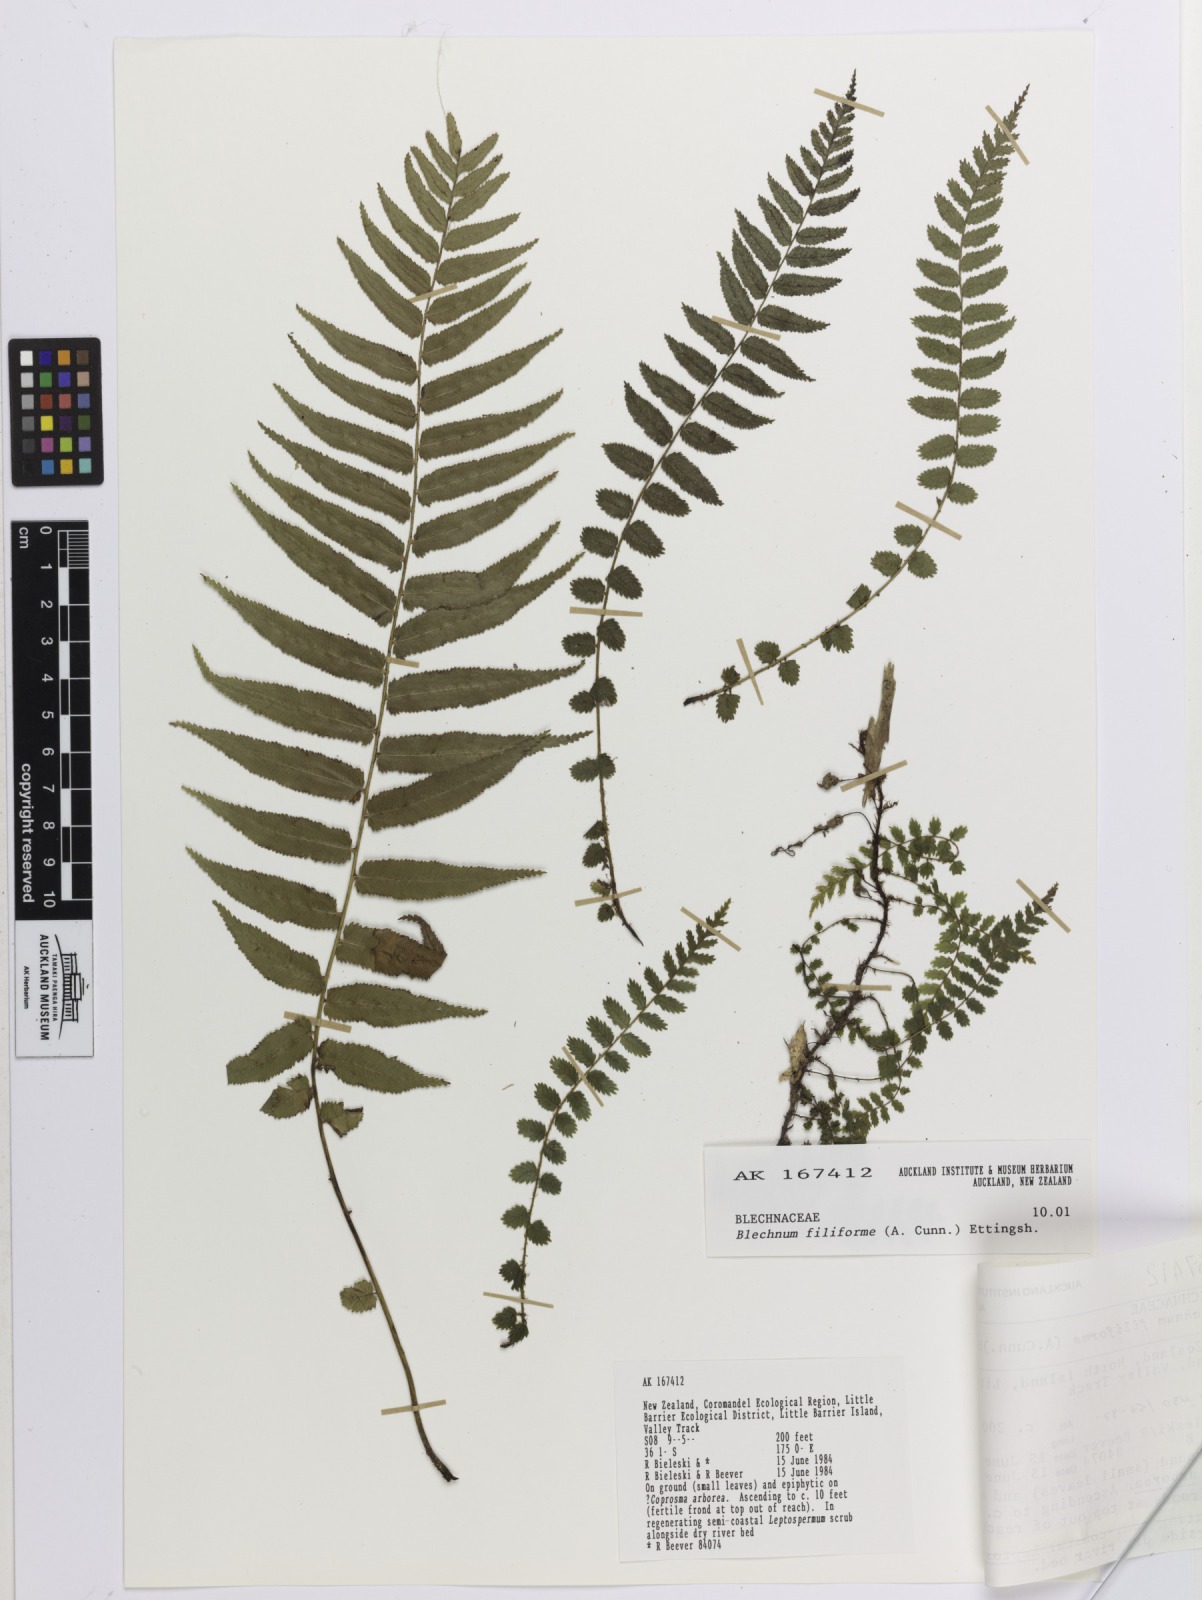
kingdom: Plantae
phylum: Tracheophyta
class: Polypodiopsida
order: Polypodiales
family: Blechnaceae
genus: Icarus
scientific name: Icarus filiformis
